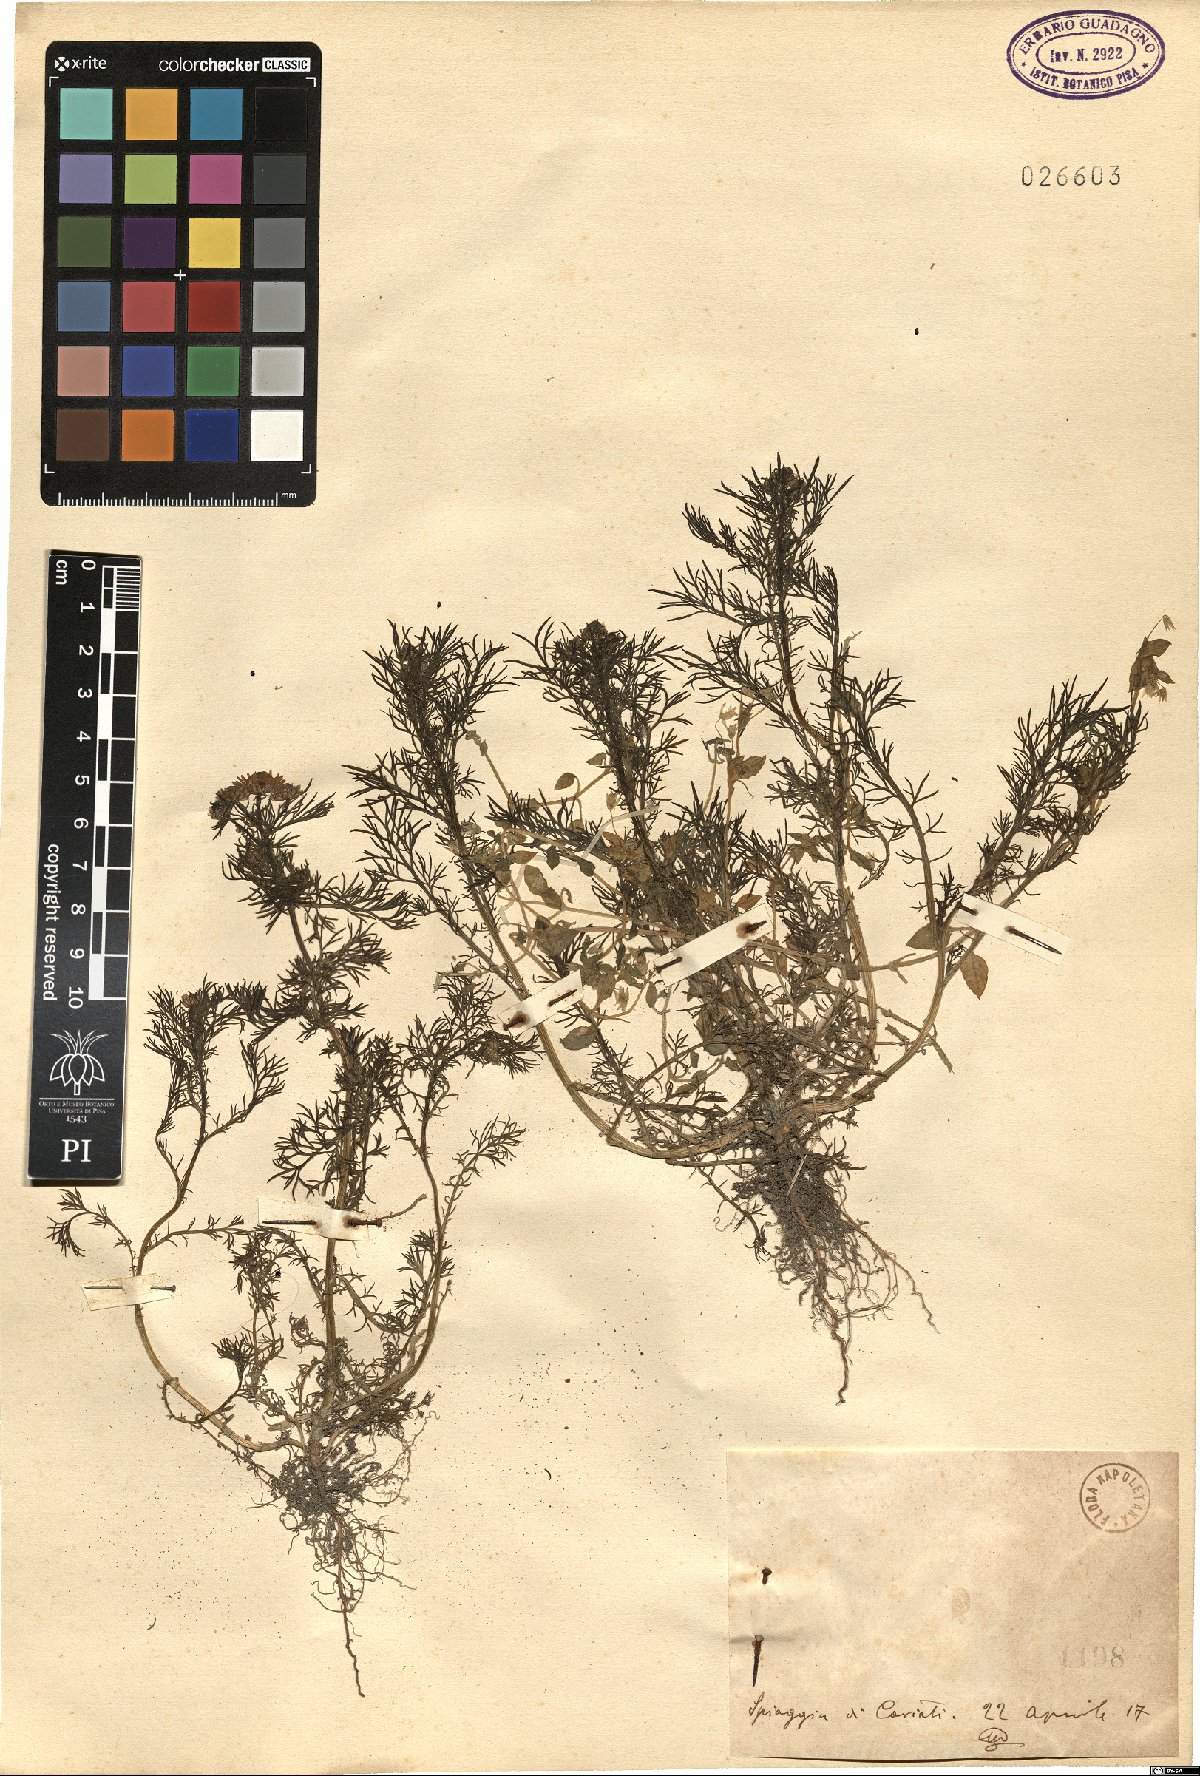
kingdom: Plantae
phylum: Tracheophyta
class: Magnoliopsida
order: Asterales
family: Asteraceae
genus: Matricaria
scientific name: Matricaria
